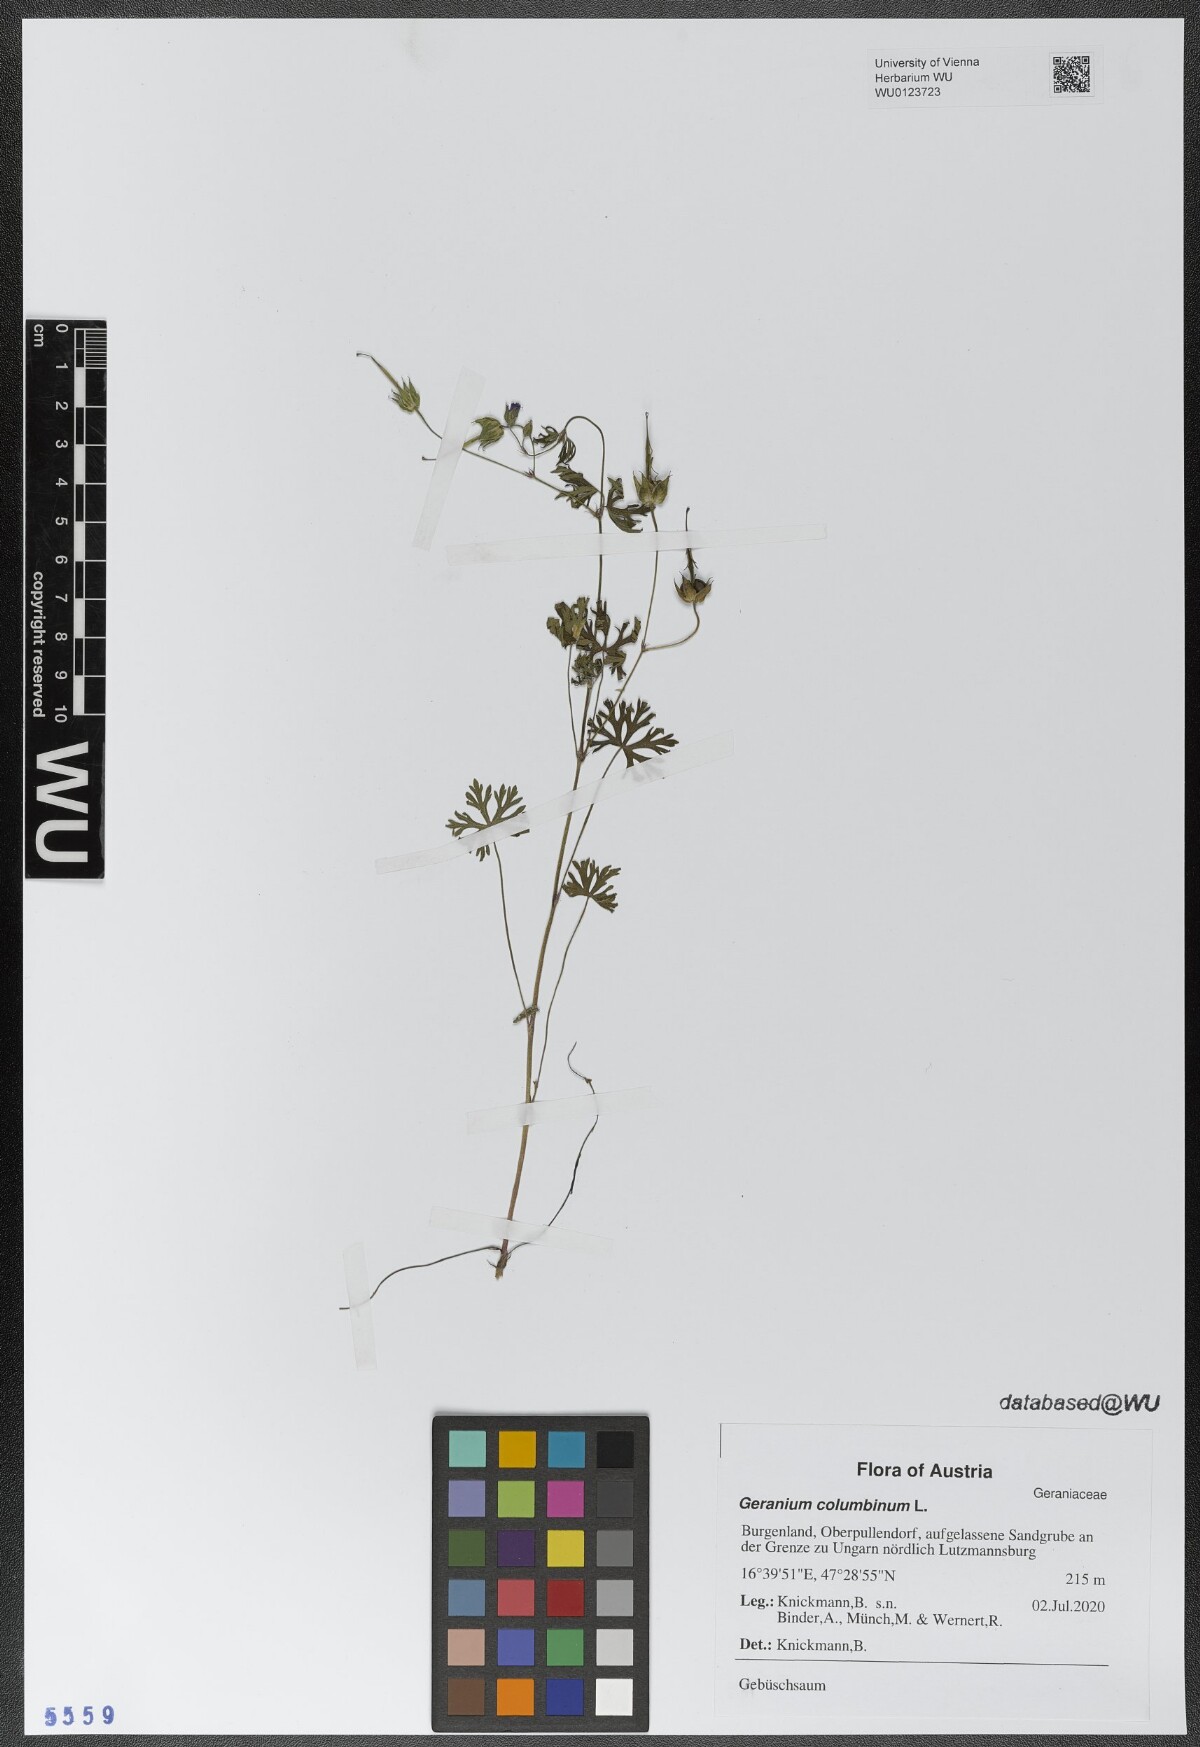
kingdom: Plantae
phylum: Tracheophyta
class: Magnoliopsida
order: Geraniales
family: Geraniaceae
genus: Geranium
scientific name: Geranium columbinum
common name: Long-stalked crane's-bill
